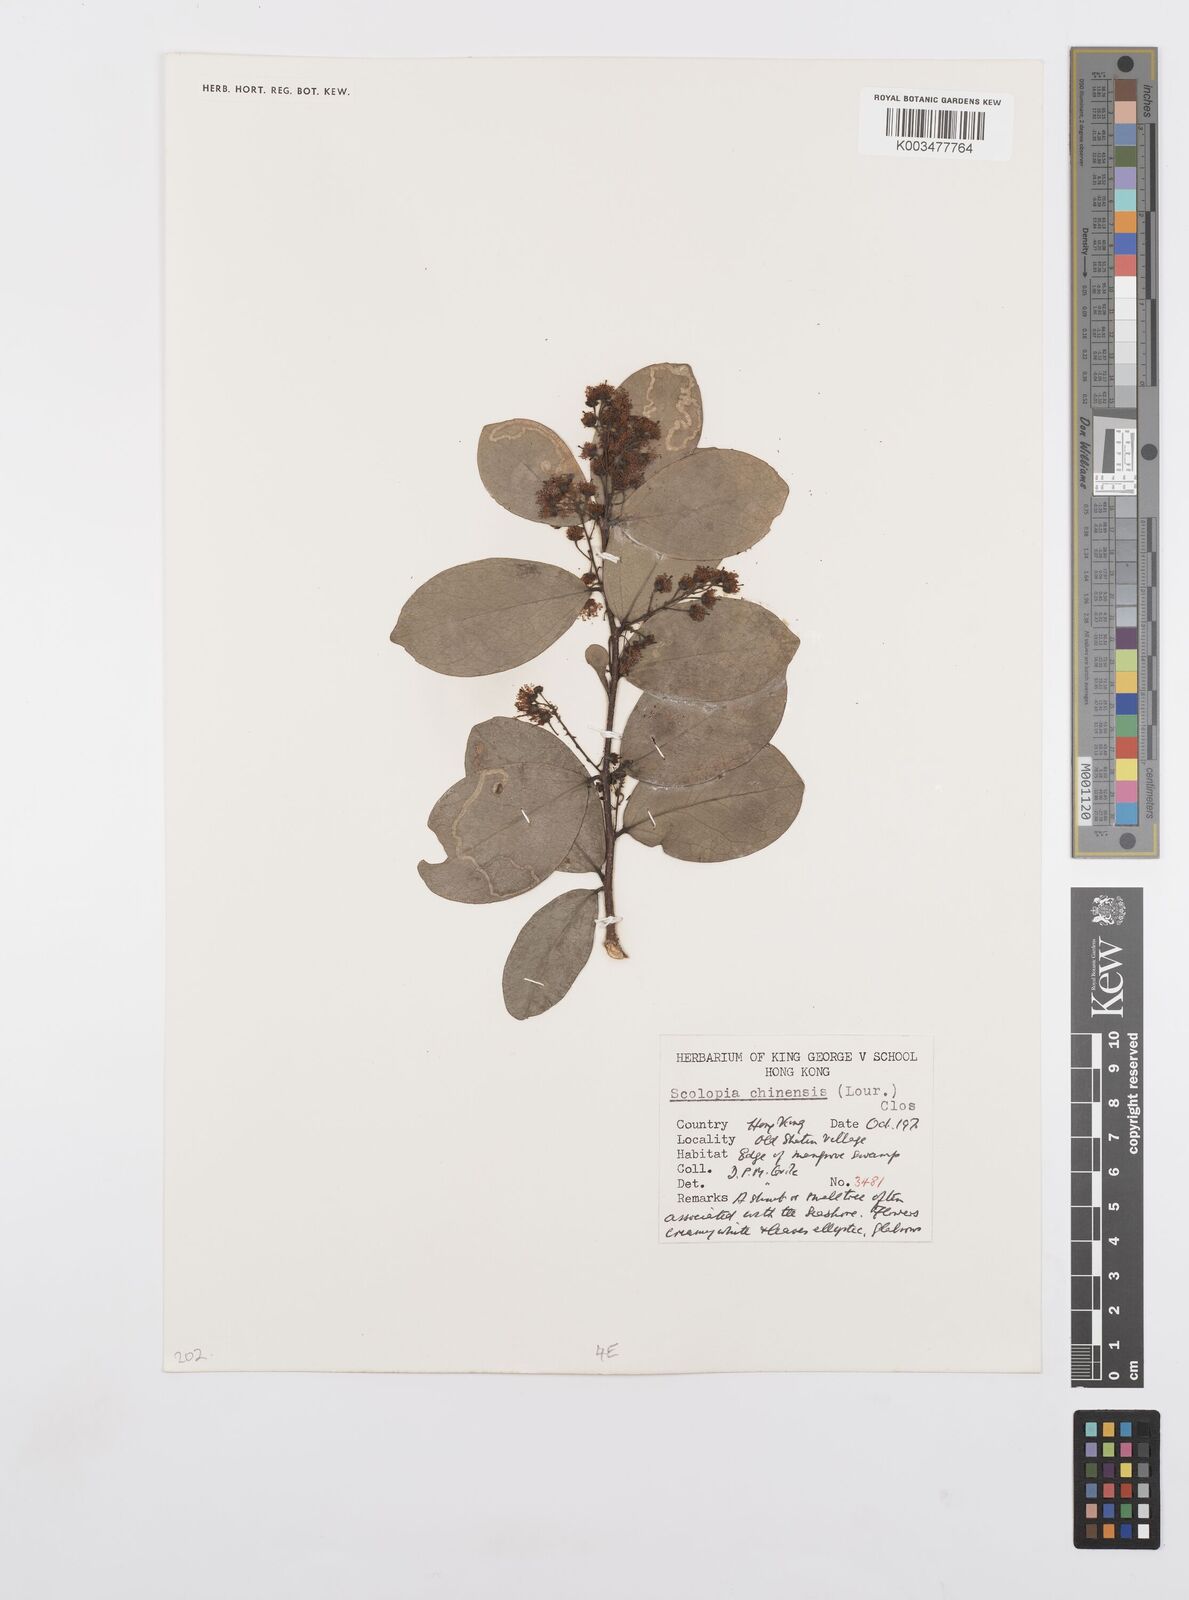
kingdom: Plantae
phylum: Tracheophyta
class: Magnoliopsida
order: Malpighiales
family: Salicaceae
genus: Scolopia
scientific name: Scolopia chinensis
